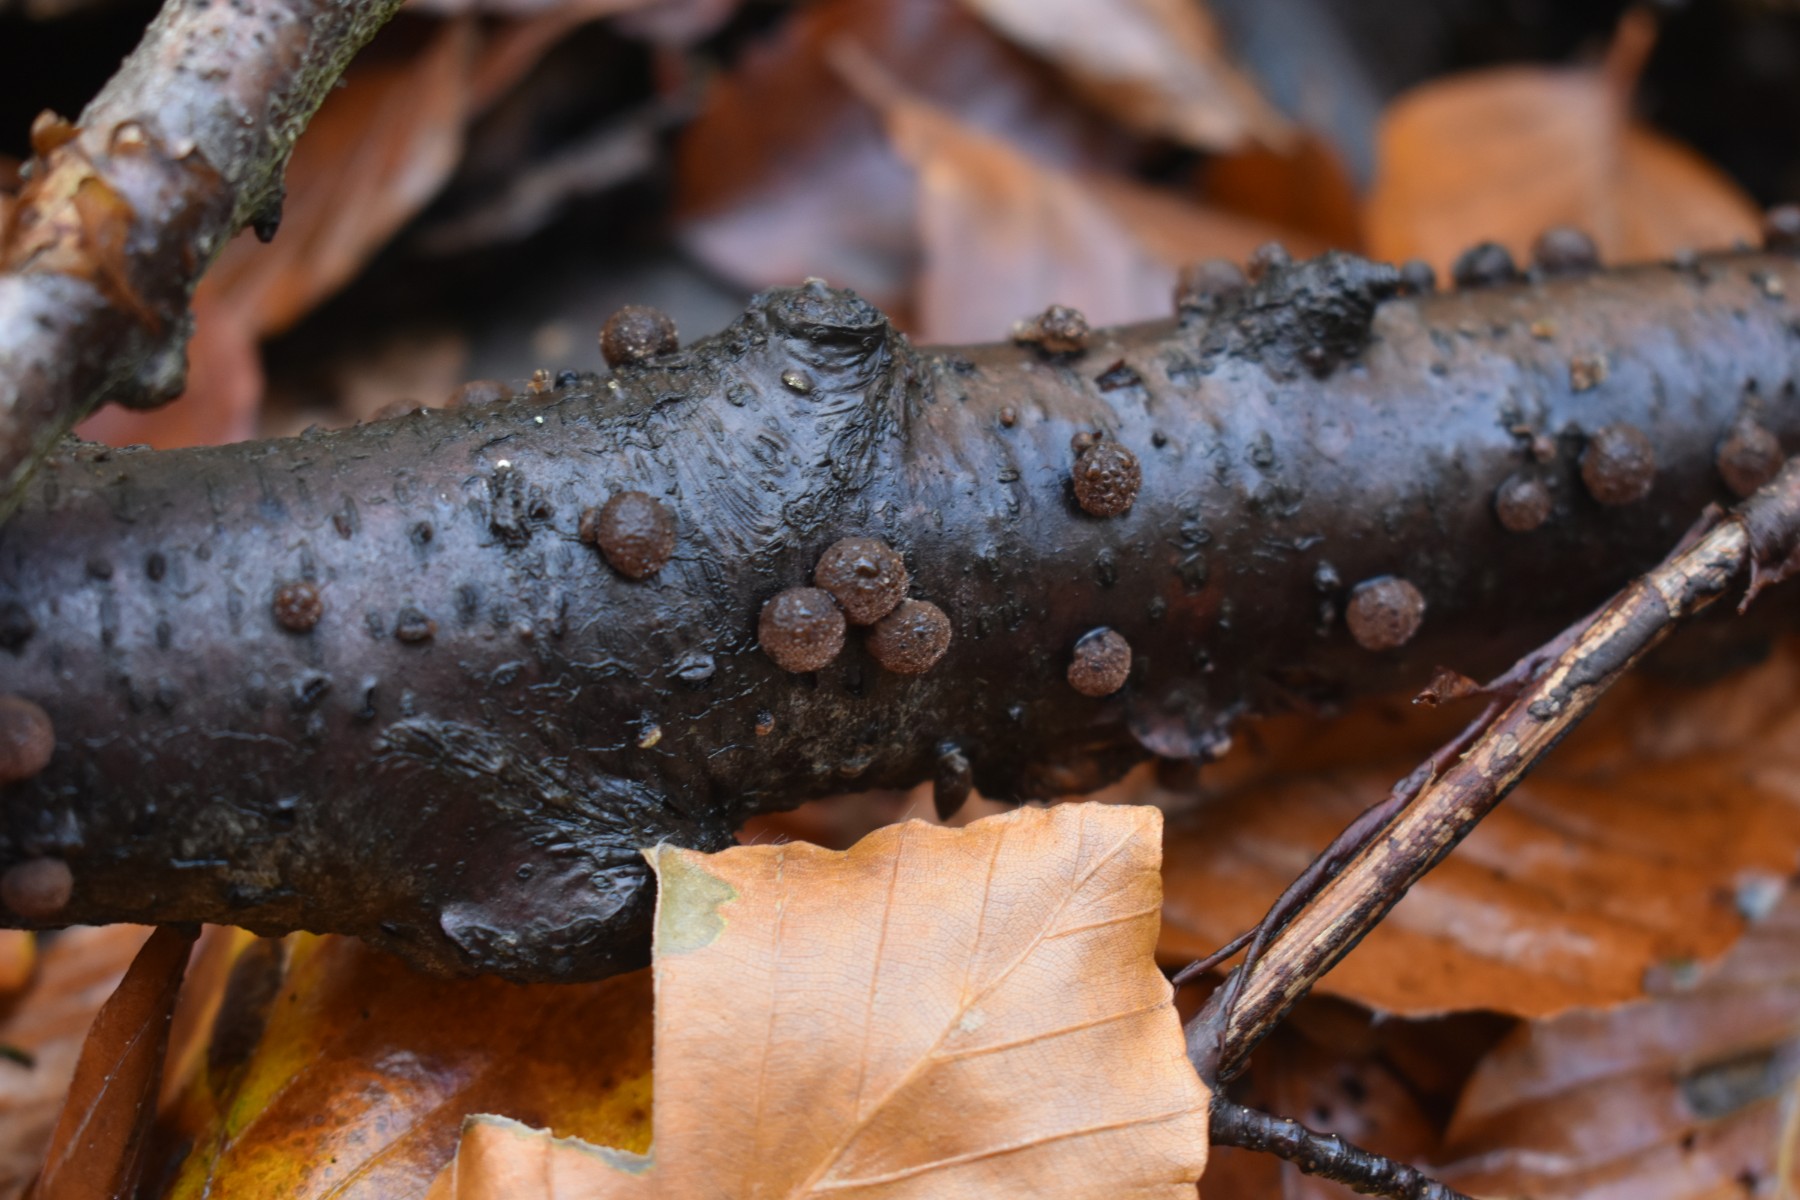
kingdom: Fungi
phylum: Ascomycota
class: Sordariomycetes
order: Xylariales
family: Hypoxylaceae
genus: Hypoxylon
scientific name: Hypoxylon fragiforme
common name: kuljordbær
